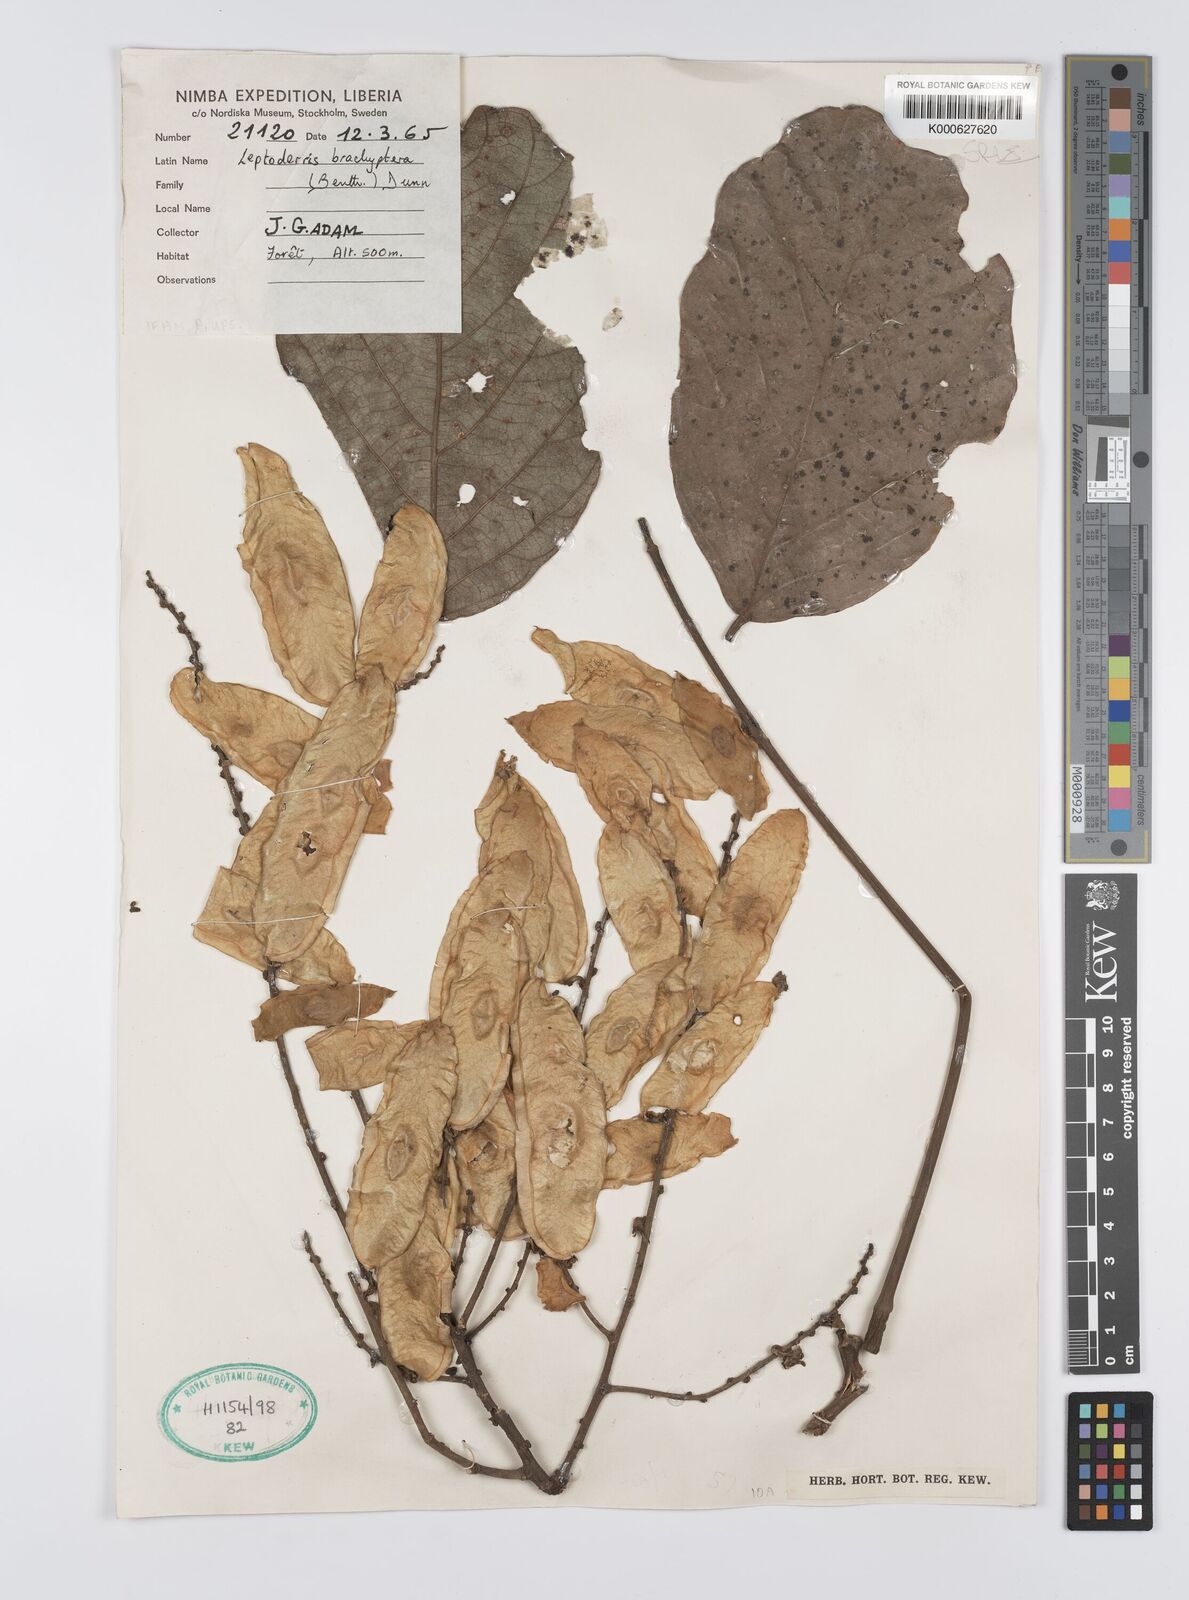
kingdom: Plantae
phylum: Tracheophyta
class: Magnoliopsida
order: Fabales
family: Fabaceae
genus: Leptoderris
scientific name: Leptoderris brachyptera
